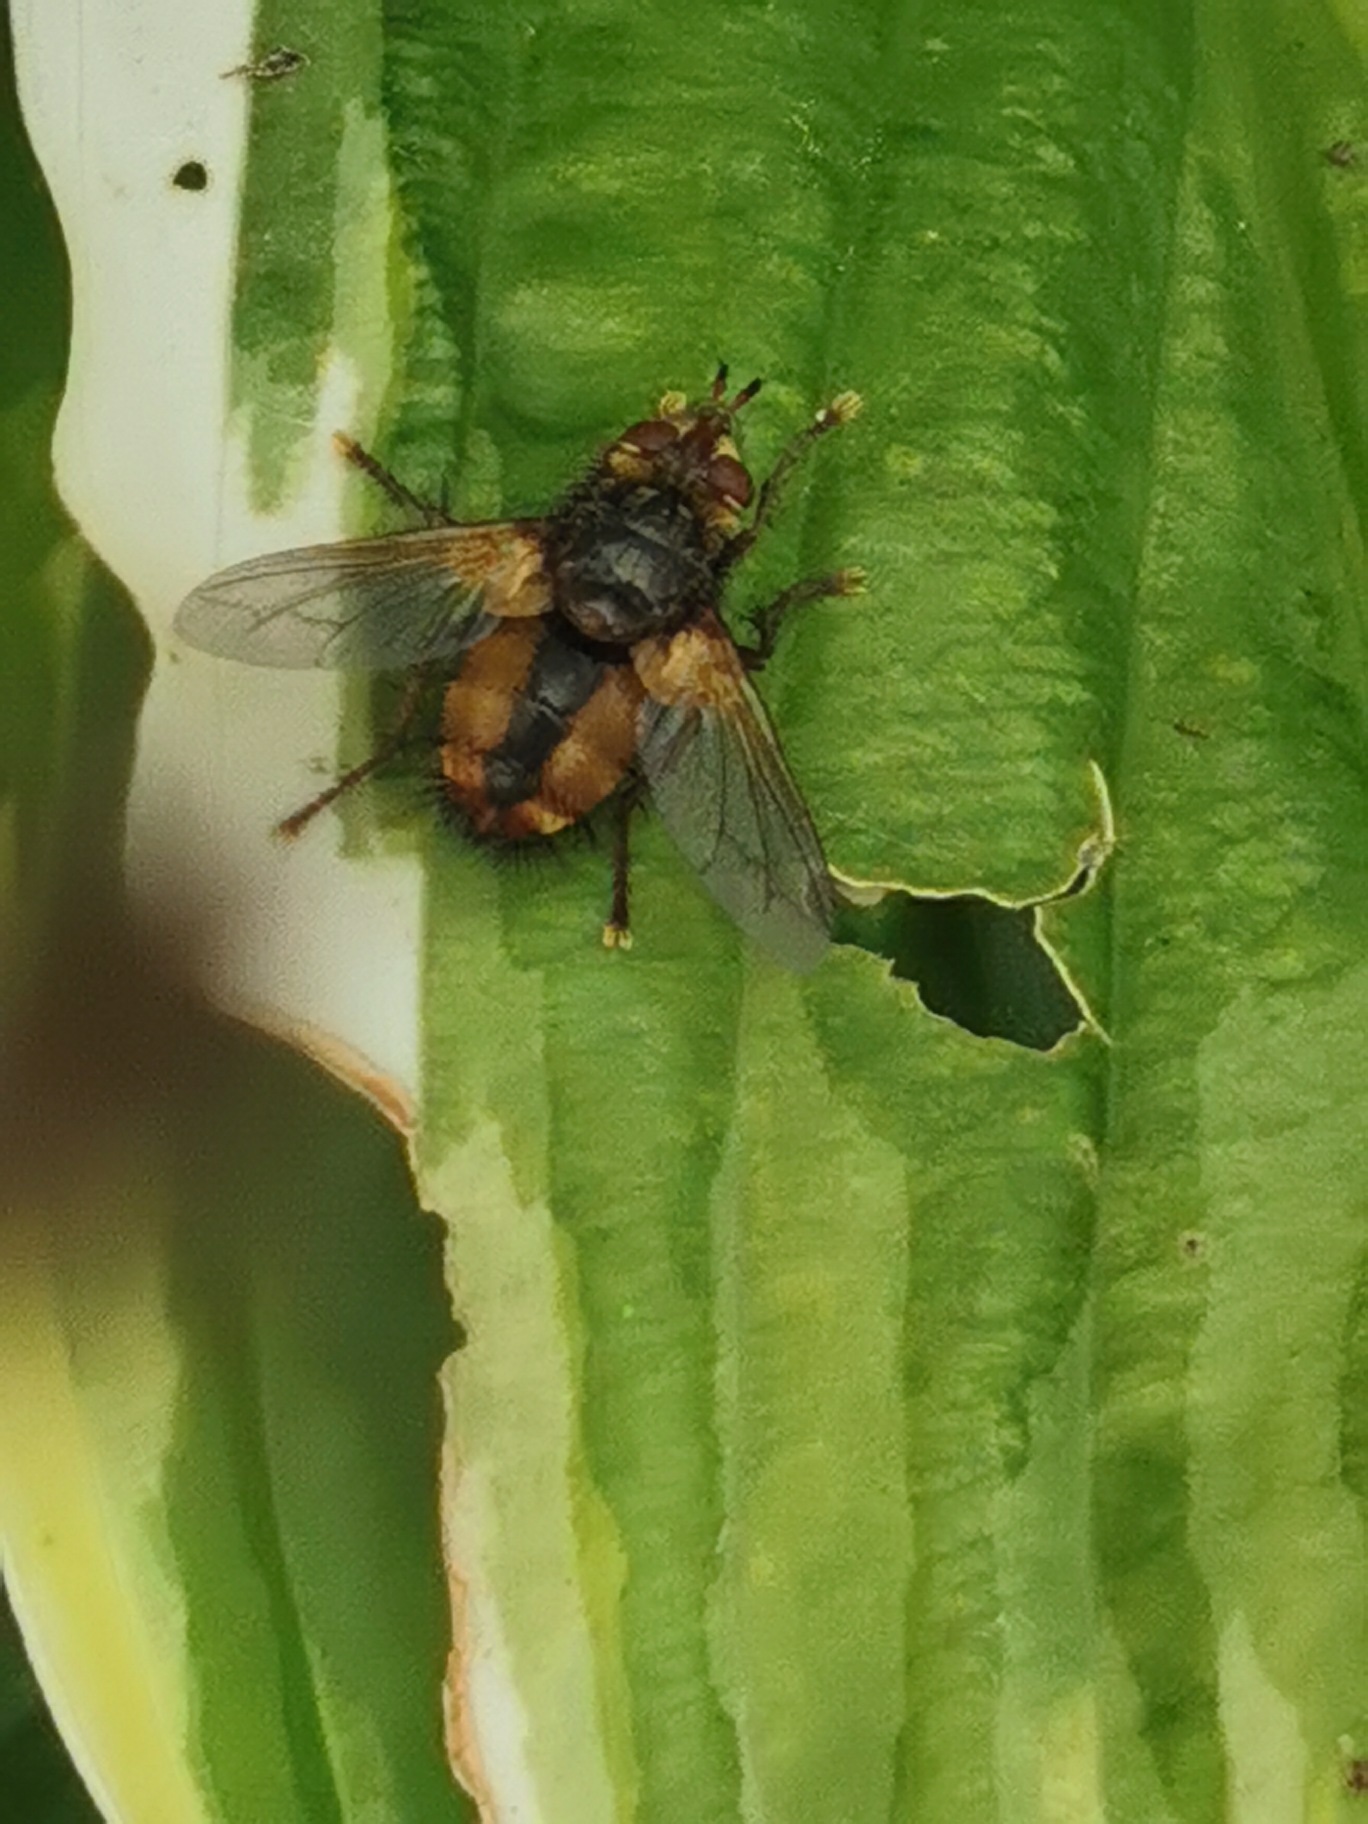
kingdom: Animalia
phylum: Arthropoda
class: Insecta
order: Diptera
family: Tachinidae
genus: Tachina
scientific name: Tachina fera
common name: Mellemfluen oskar
